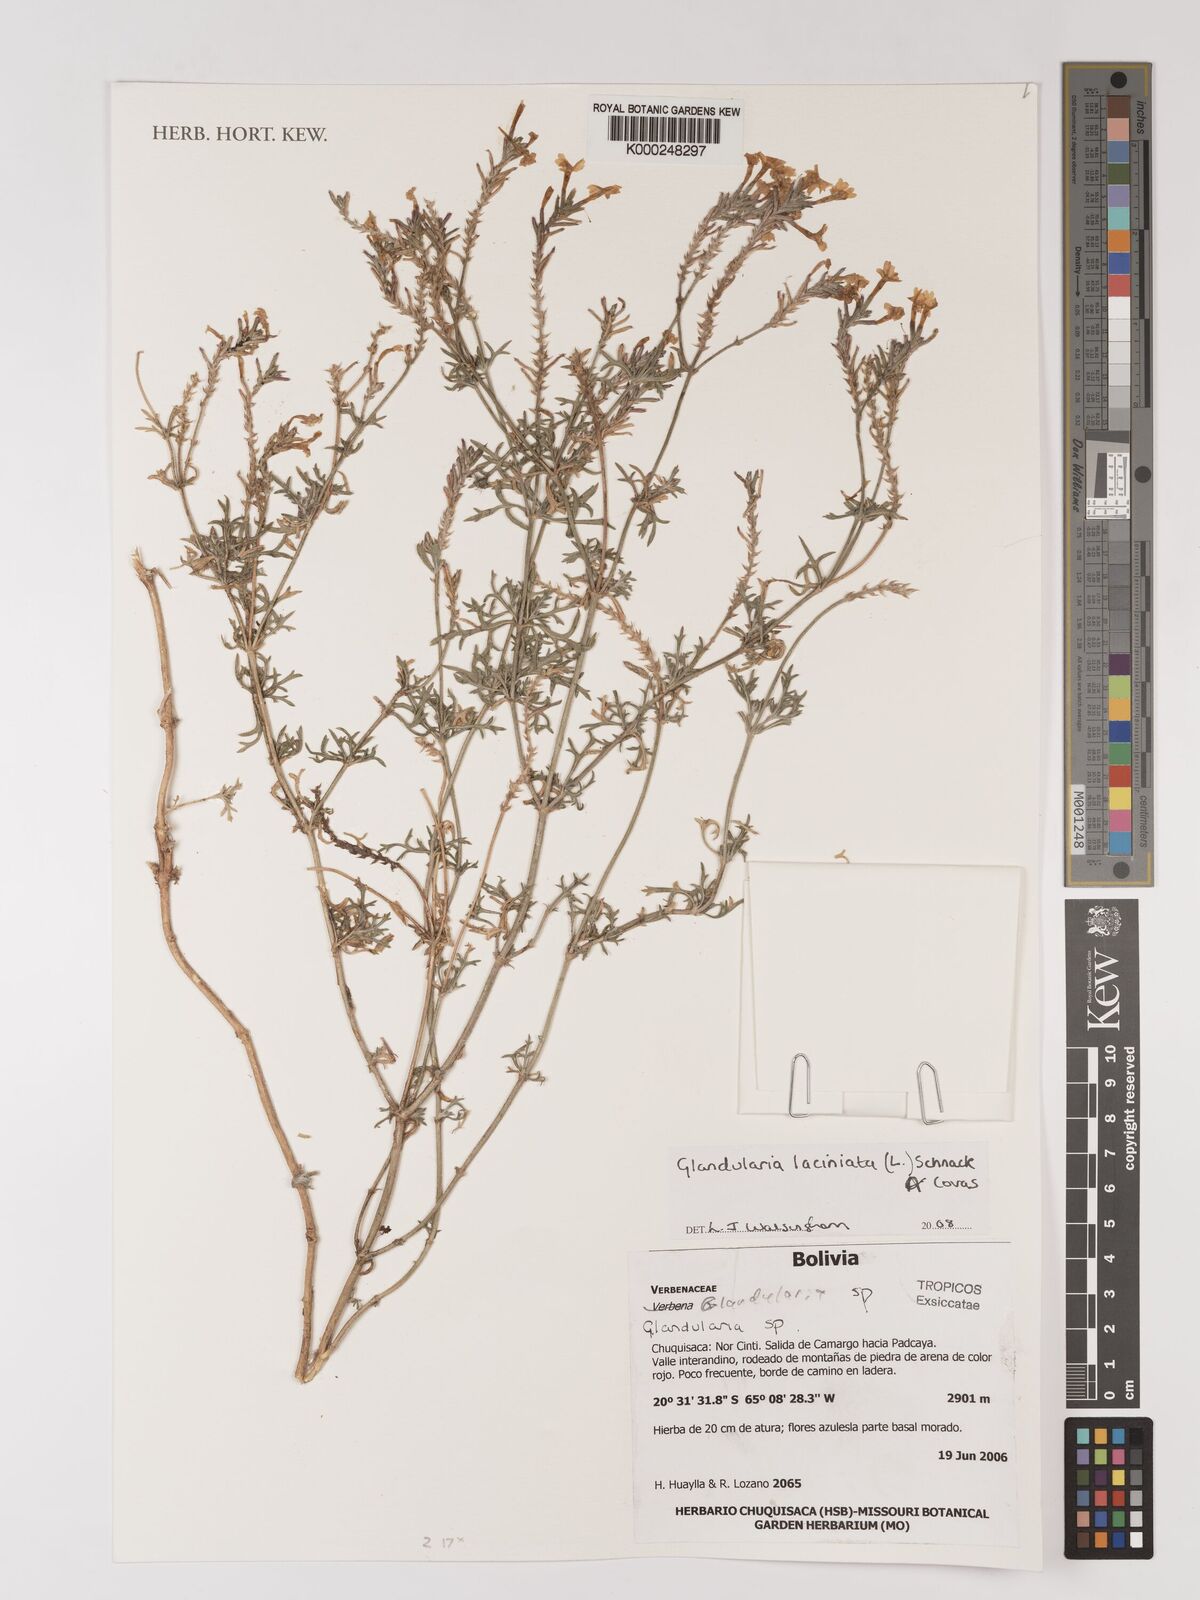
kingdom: Plantae
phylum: Tracheophyta
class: Magnoliopsida
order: Lamiales
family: Verbenaceae
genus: Verbena
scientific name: Verbena laciniata
